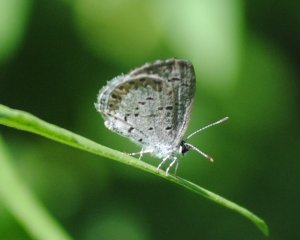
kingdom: Animalia
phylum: Arthropoda
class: Insecta
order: Lepidoptera
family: Lycaenidae
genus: Celastrina
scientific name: Celastrina lucia
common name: Northern Spring Azure
